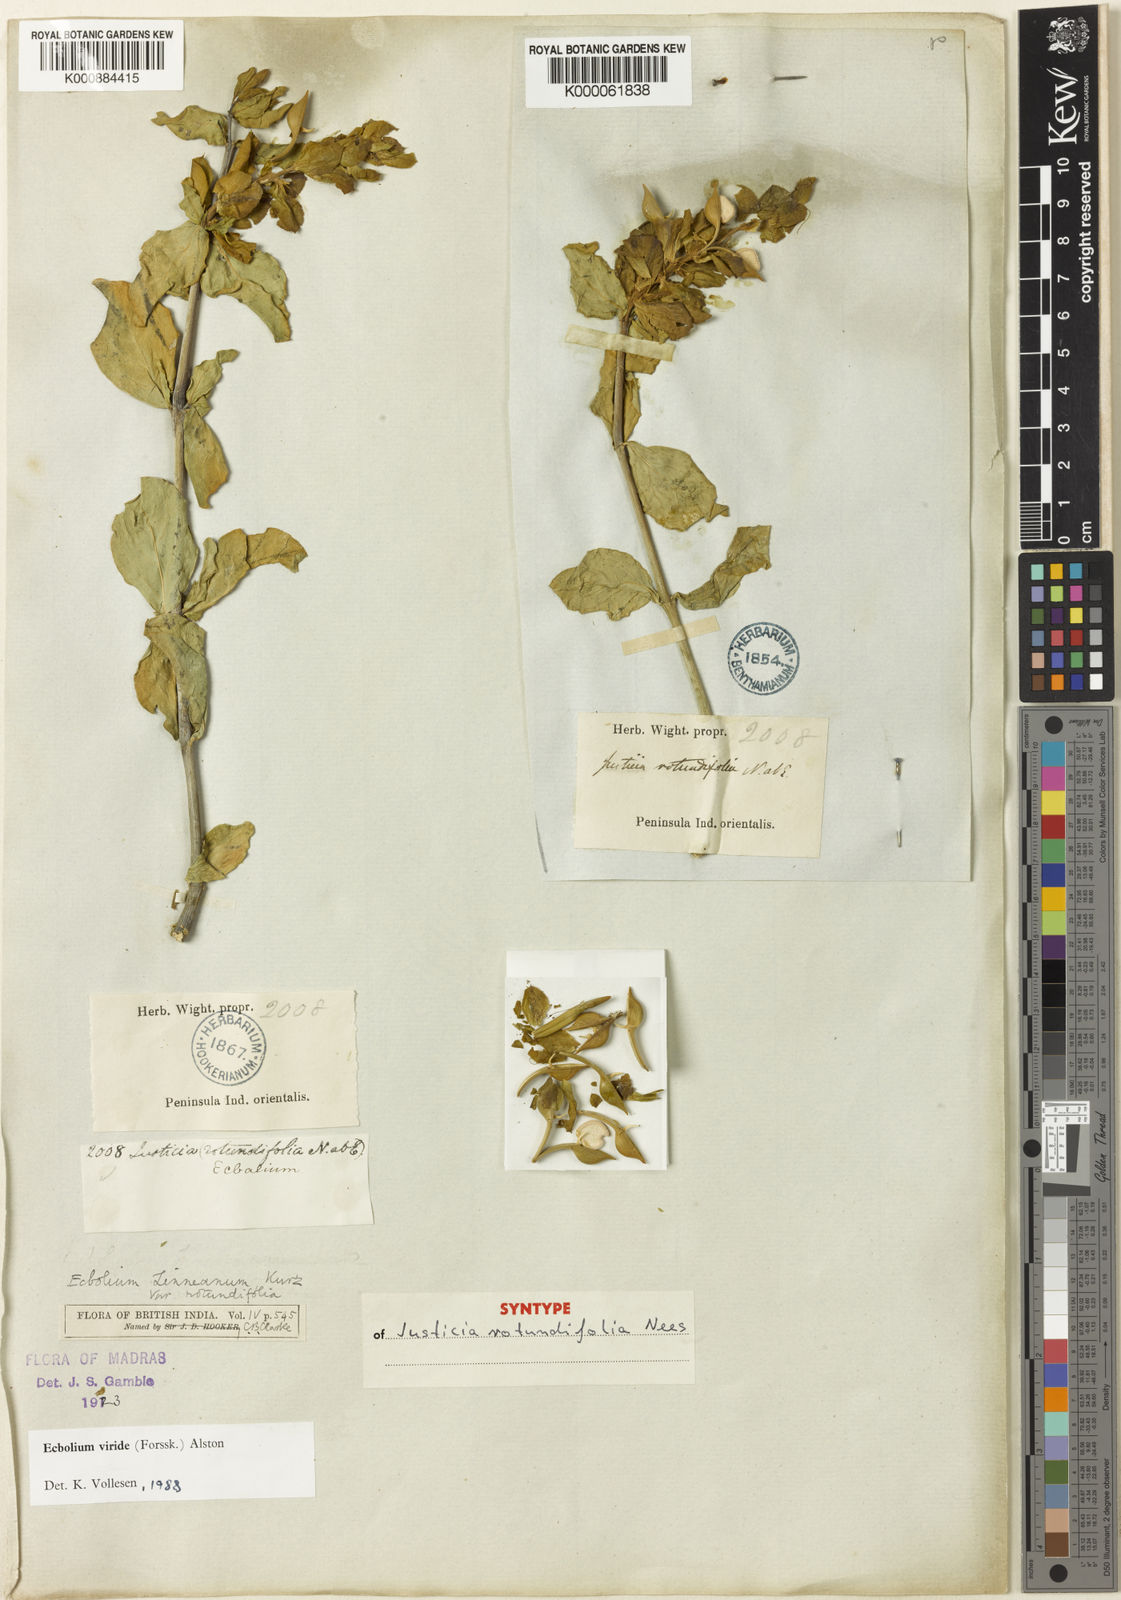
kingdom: Plantae
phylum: Tracheophyta
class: Magnoliopsida
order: Lamiales
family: Acanthaceae
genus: Ecbolium
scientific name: Ecbolium viride
